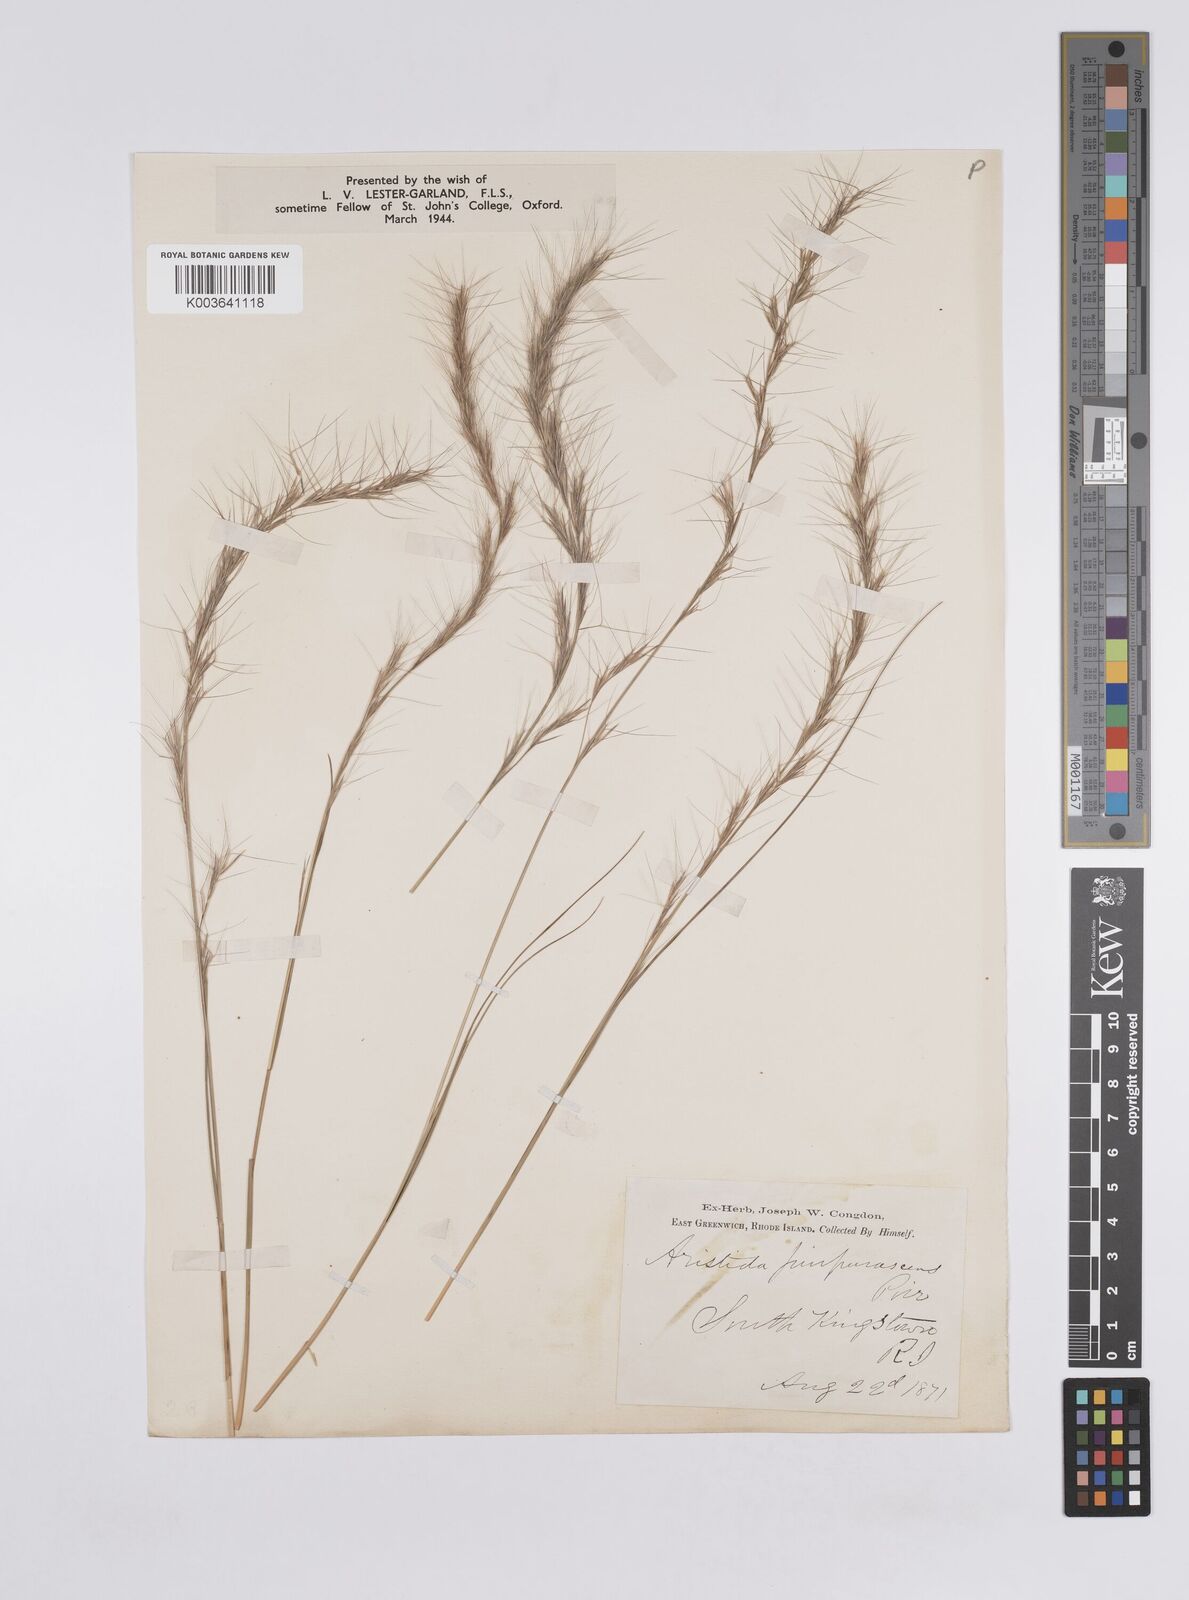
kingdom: Plantae
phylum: Tracheophyta
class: Liliopsida
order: Poales
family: Poaceae
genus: Aristida
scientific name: Aristida purpurascens
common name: Arrow-feather
